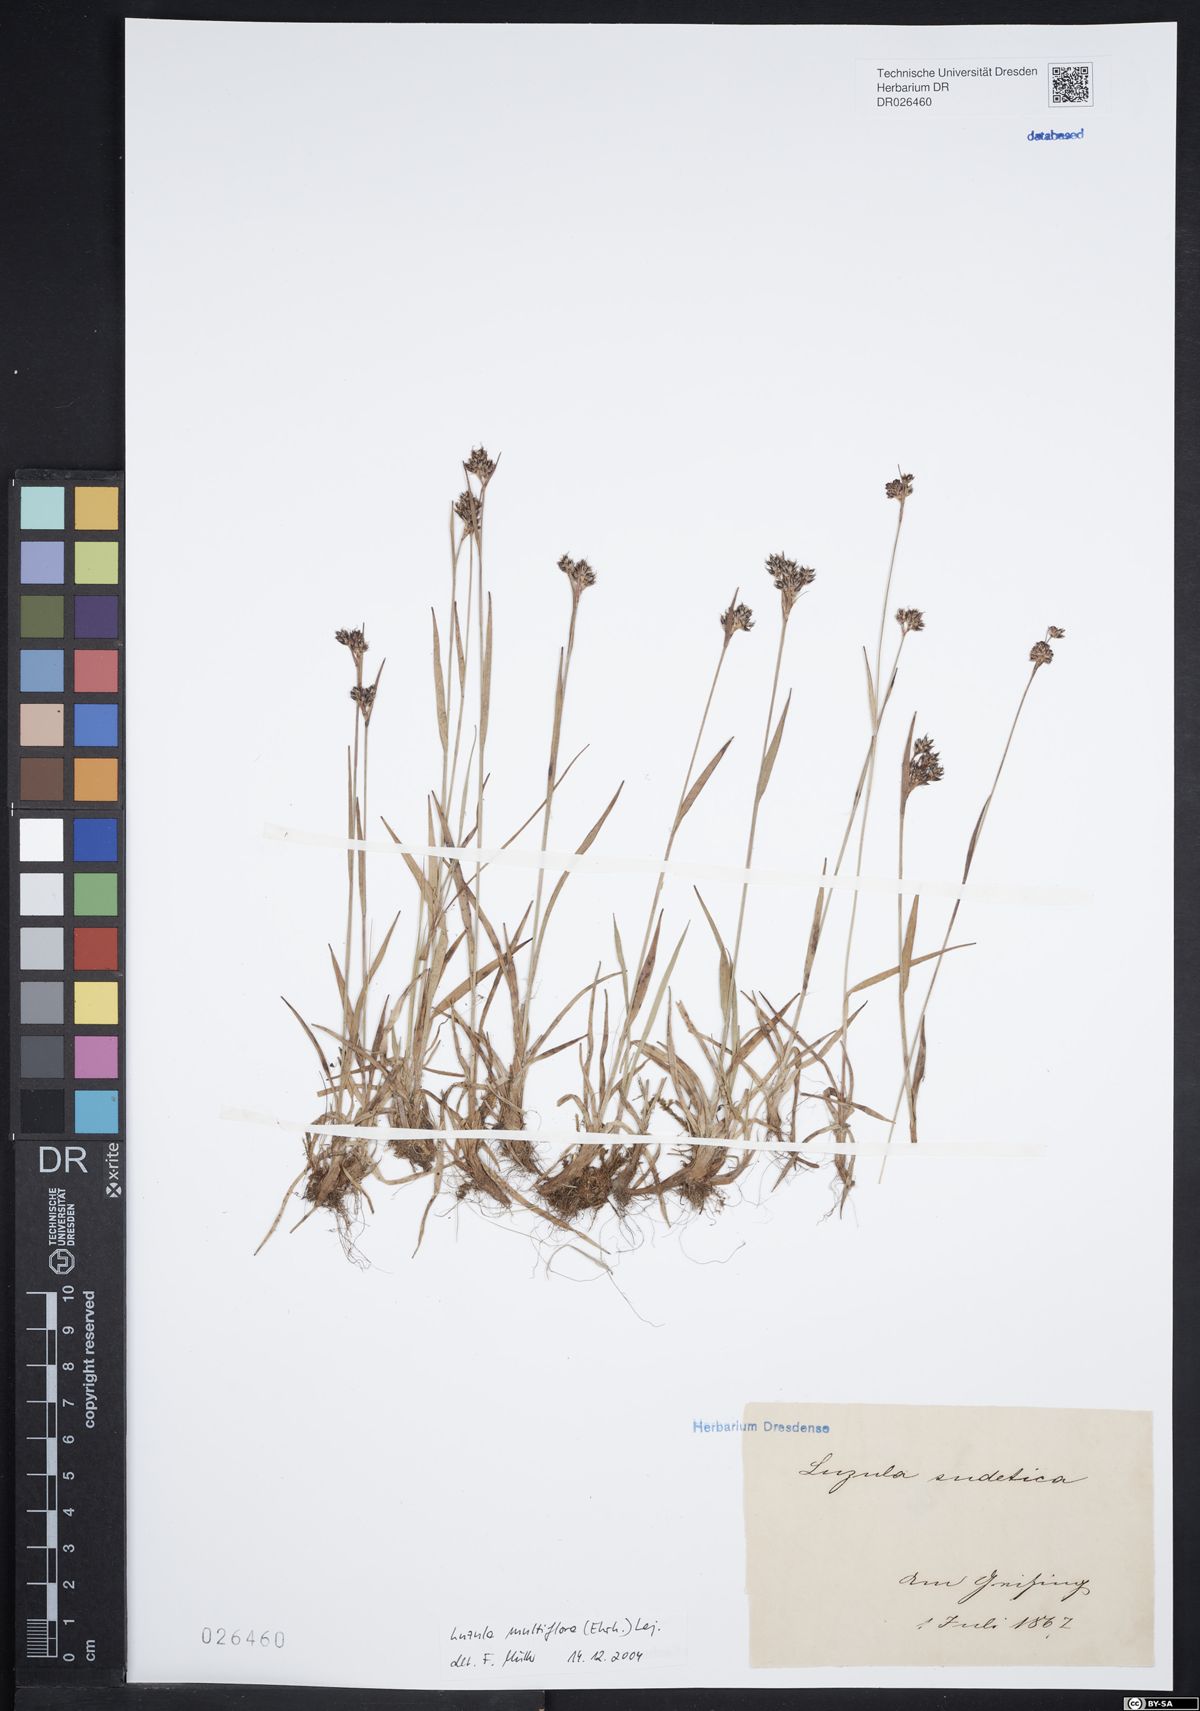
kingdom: Plantae
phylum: Tracheophyta
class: Liliopsida
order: Poales
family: Juncaceae
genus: Luzula
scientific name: Luzula multiflora
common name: Heath wood-rush
